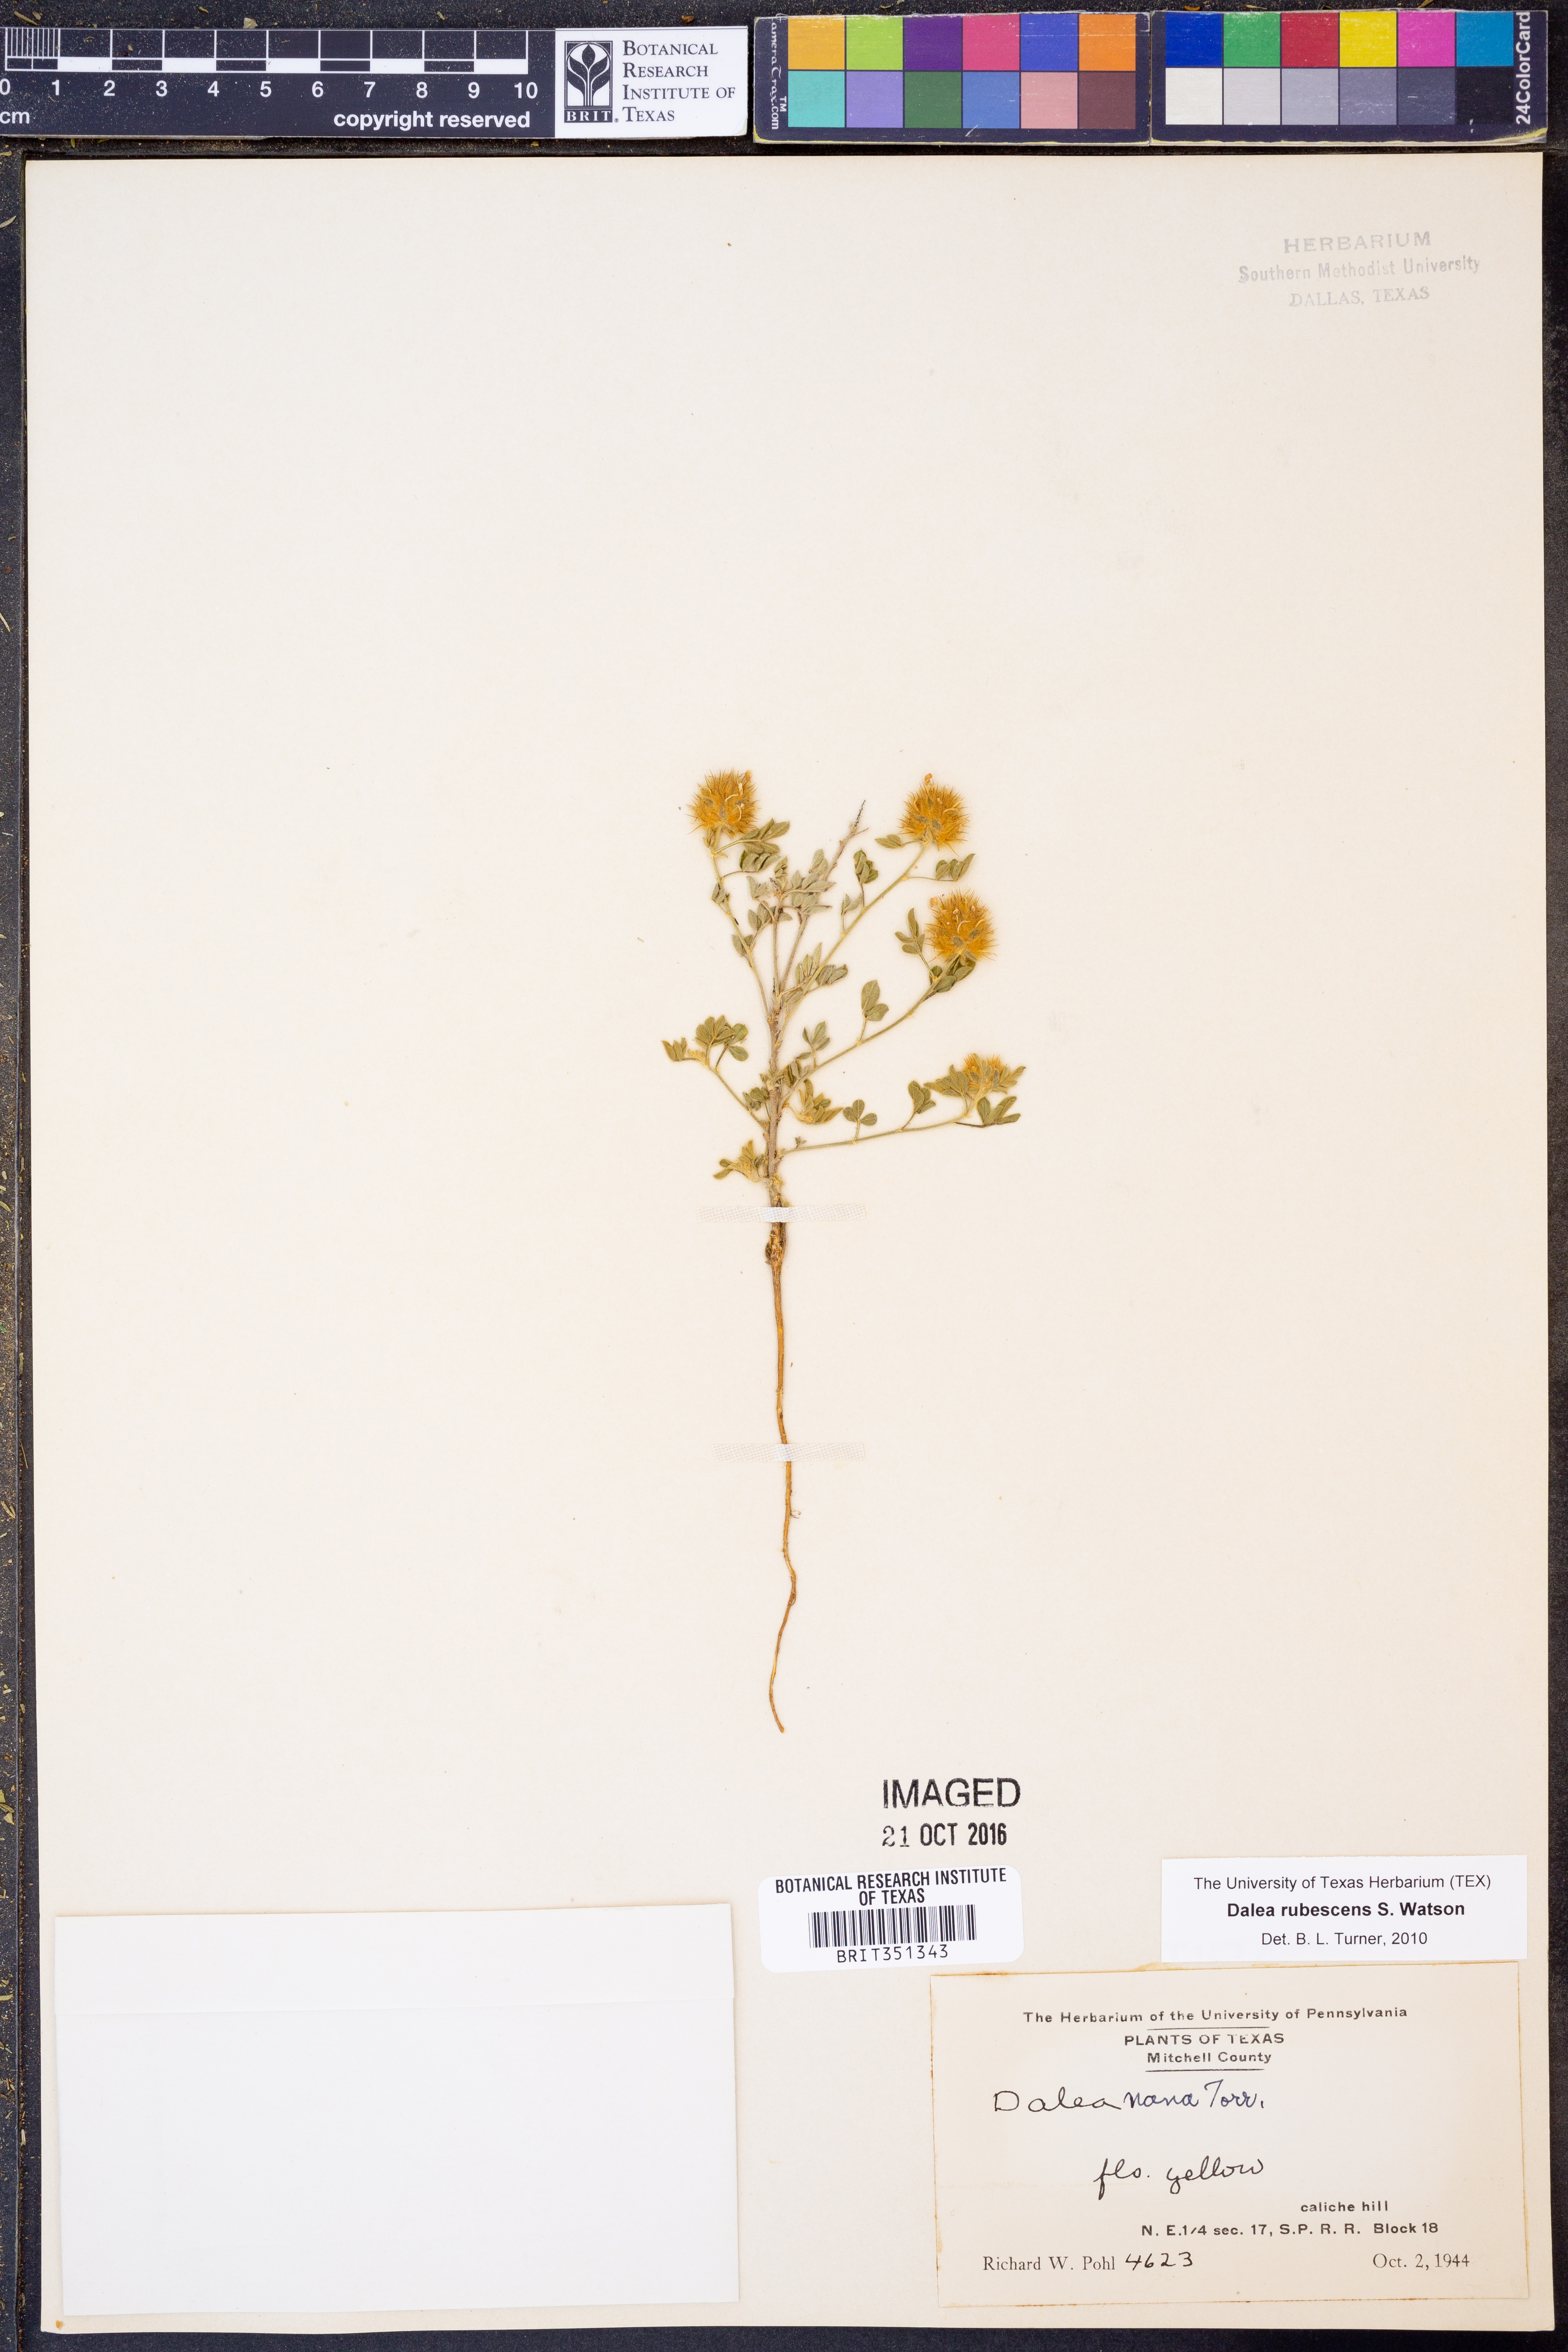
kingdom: Plantae
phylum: Tracheophyta
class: Magnoliopsida
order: Fabales
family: Fabaceae
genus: Dalea
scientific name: Dalea rubescens
